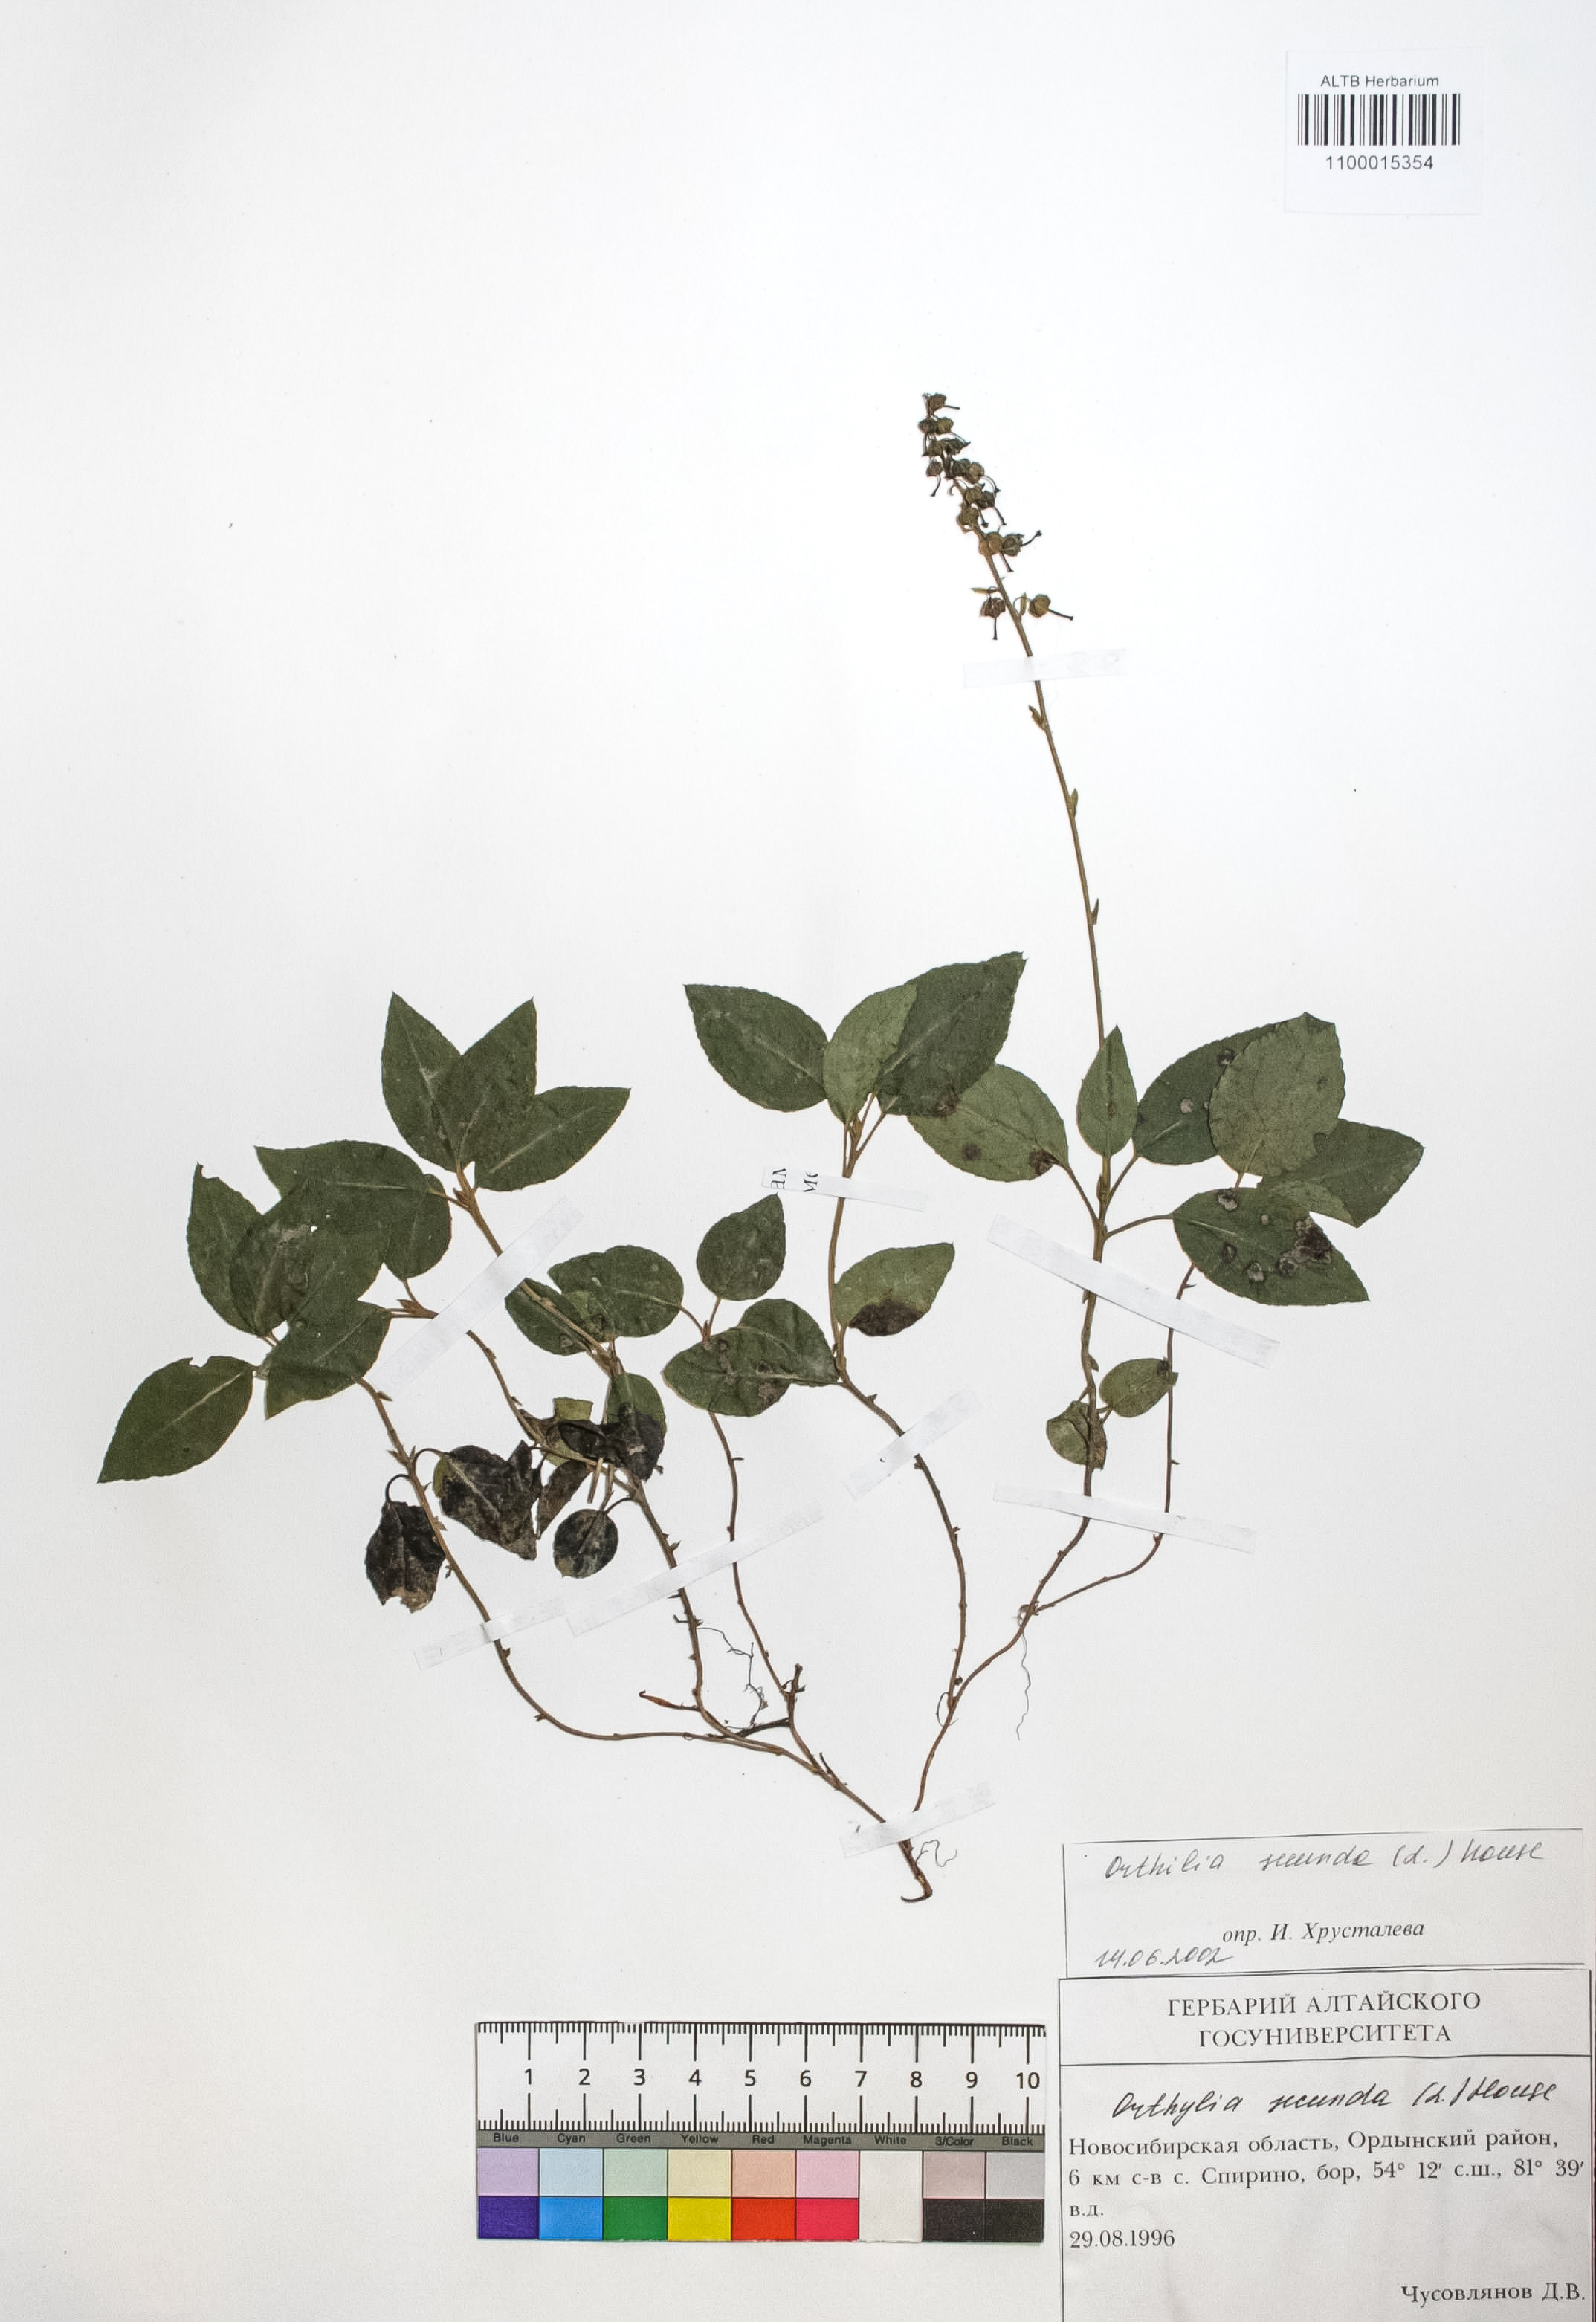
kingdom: Plantae
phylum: Tracheophyta
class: Magnoliopsida
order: Ericales
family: Ericaceae
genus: Orthilia
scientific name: Orthilia secunda
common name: One-sided orthilia
